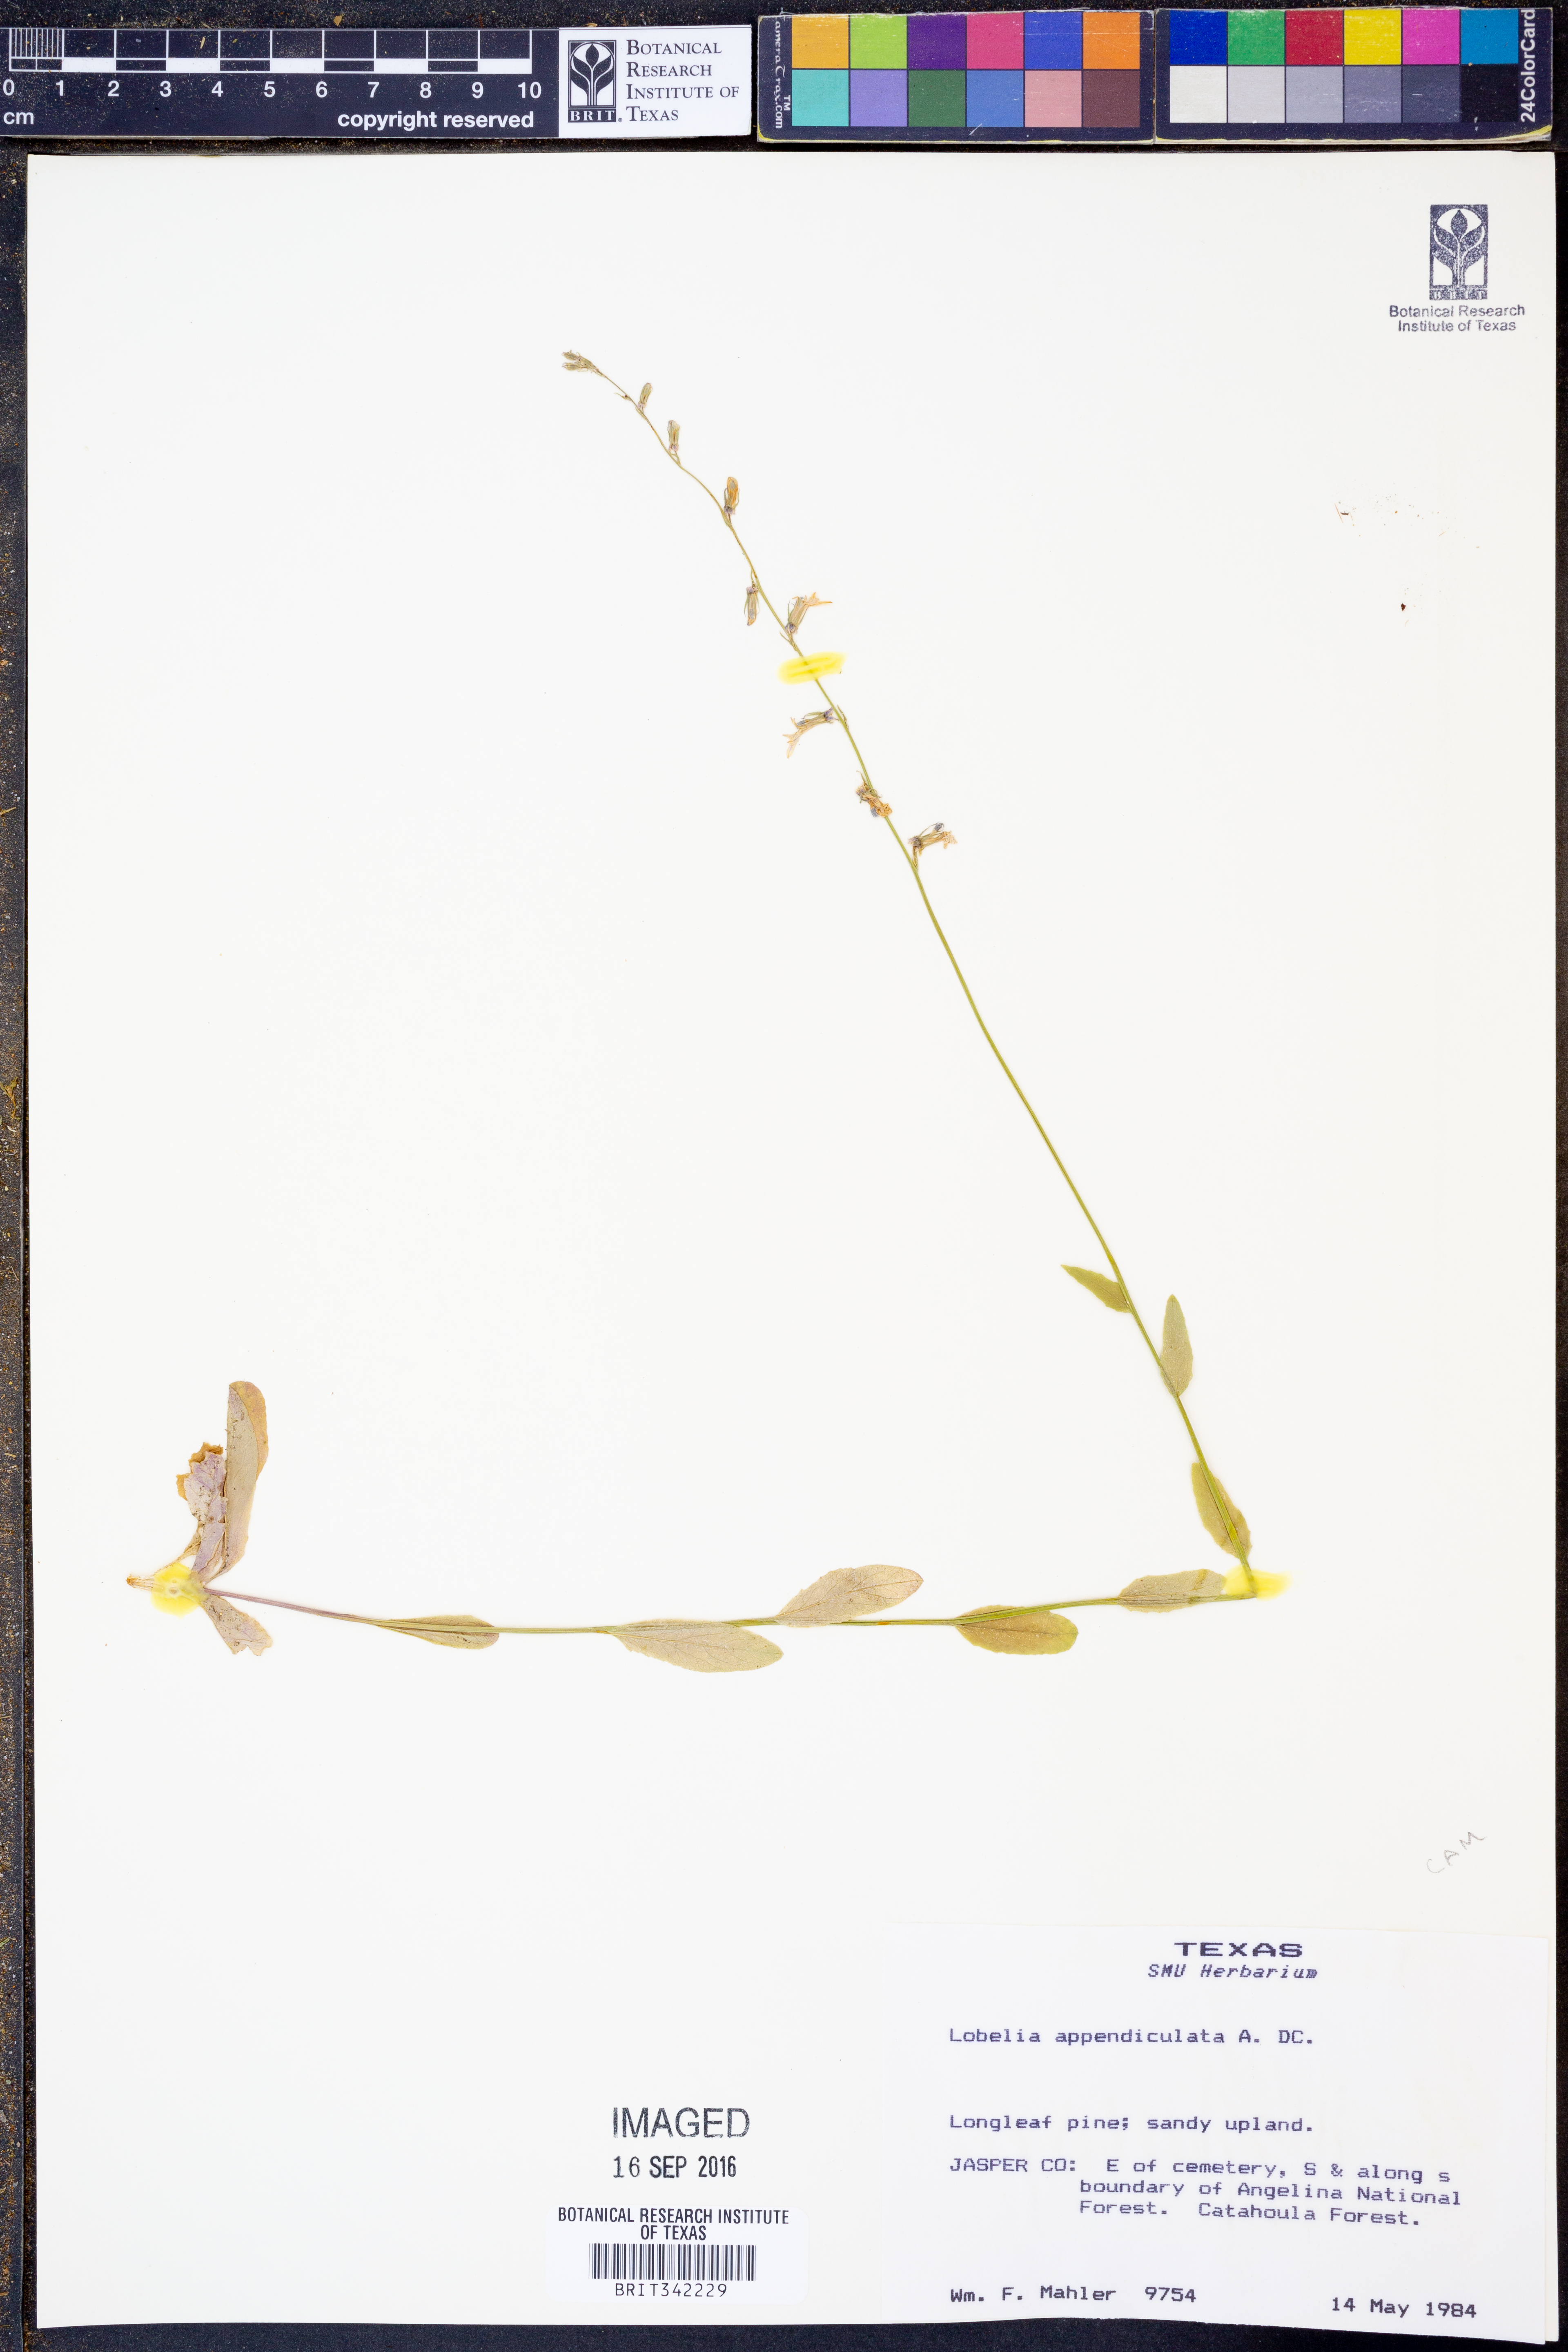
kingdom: Plantae
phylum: Tracheophyta
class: Magnoliopsida
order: Asterales
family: Campanulaceae
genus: Lobelia
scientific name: Lobelia appendiculata
